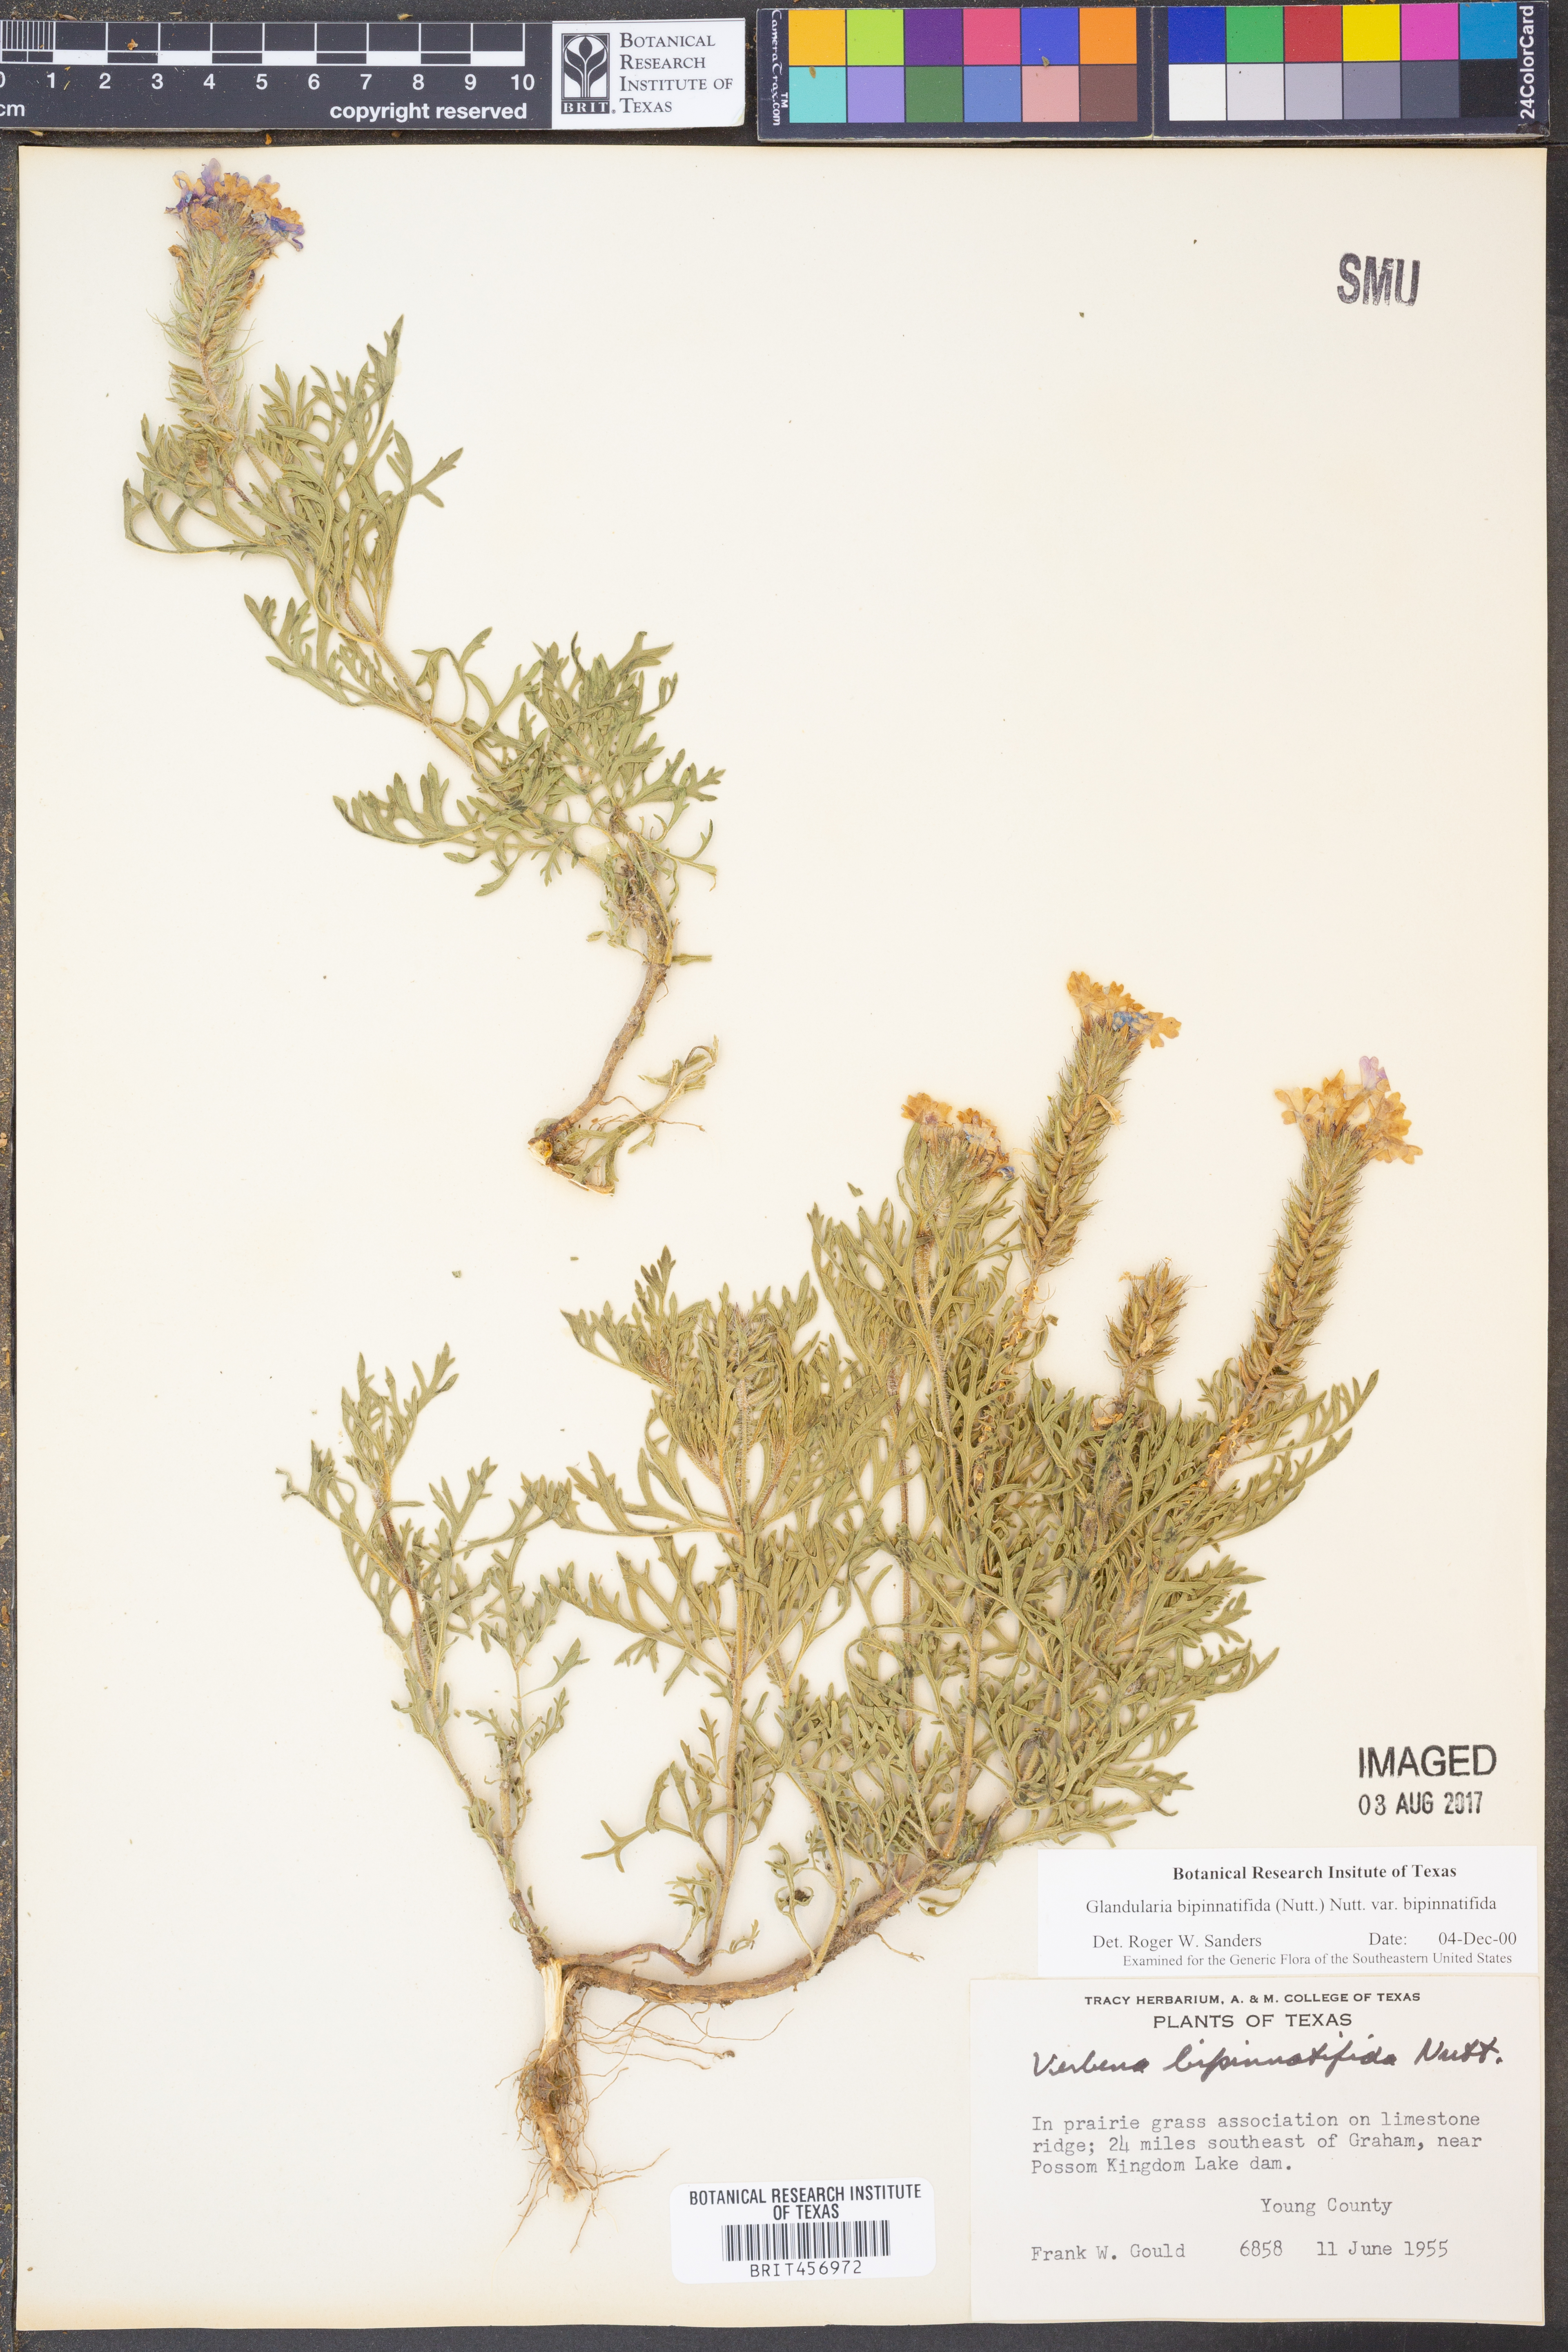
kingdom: Plantae
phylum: Tracheophyta
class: Magnoliopsida
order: Lamiales
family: Verbenaceae
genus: Verbena
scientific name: Verbena bipinnatifida
